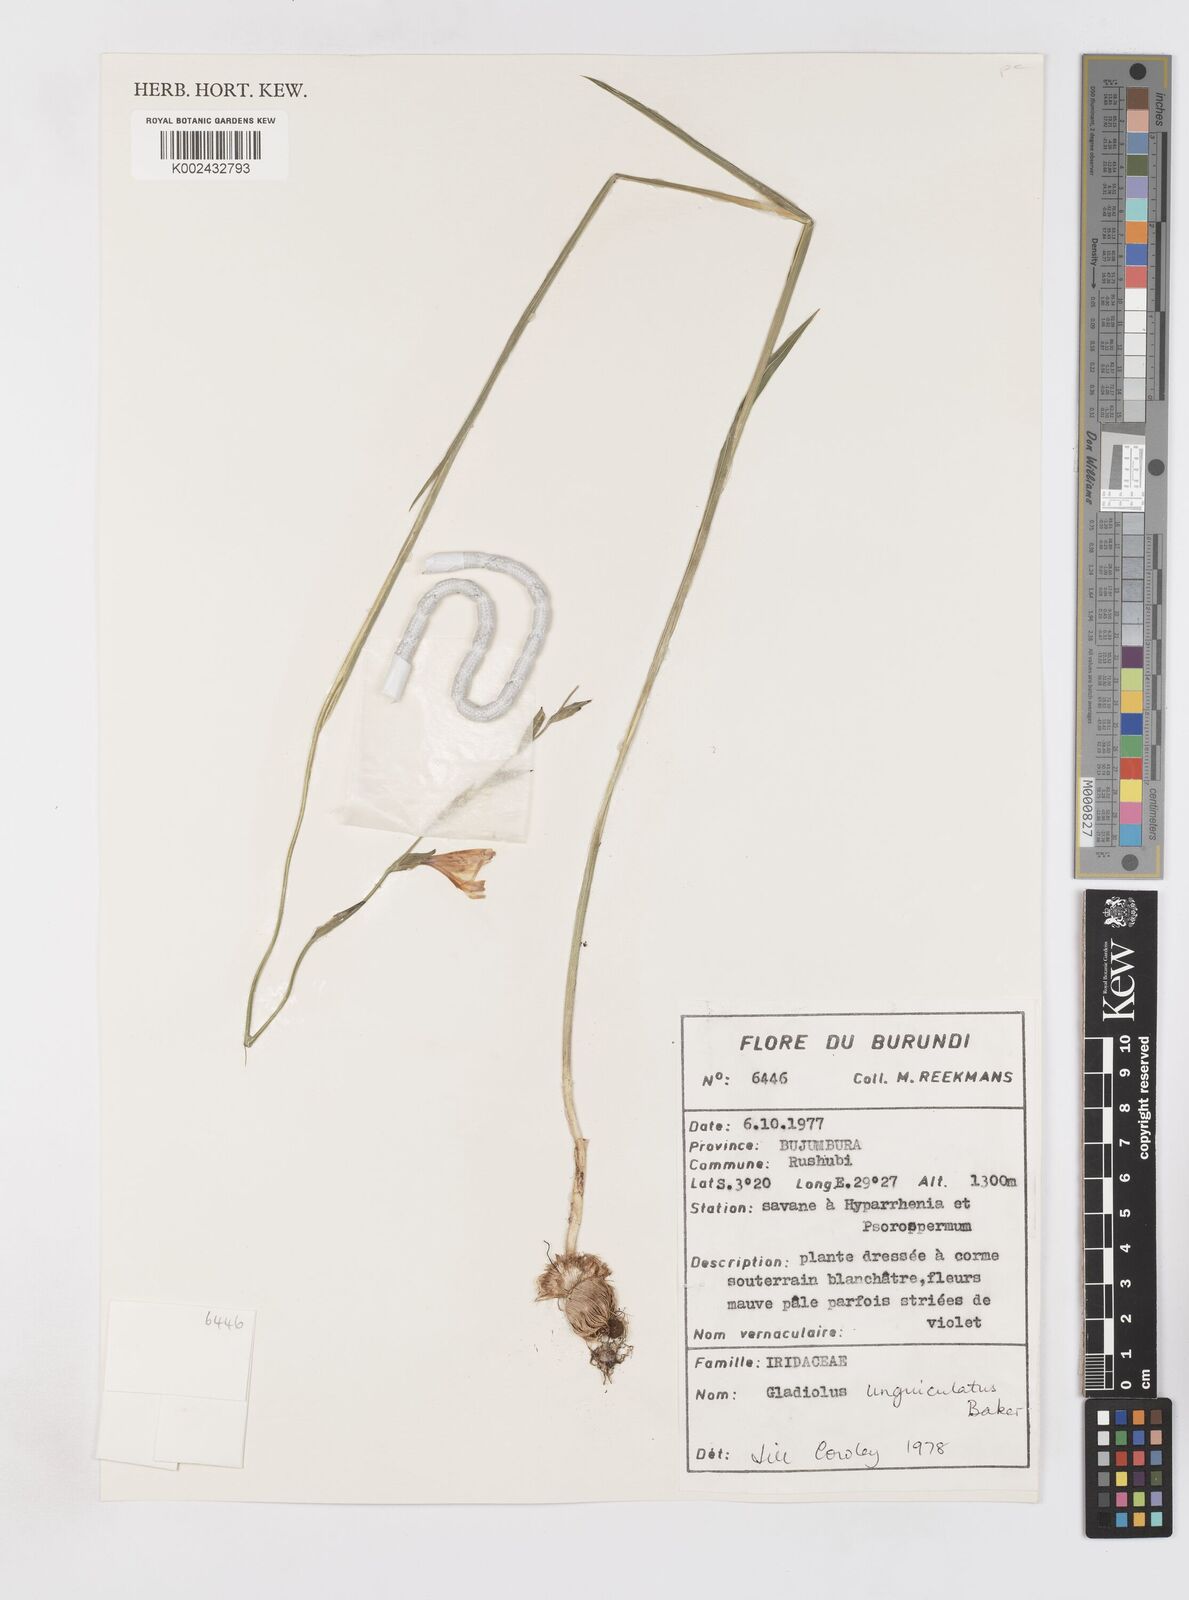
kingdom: Plantae
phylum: Tracheophyta
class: Liliopsida
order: Asparagales
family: Iridaceae
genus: Gladiolus
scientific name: Gladiolus unguiculatus
